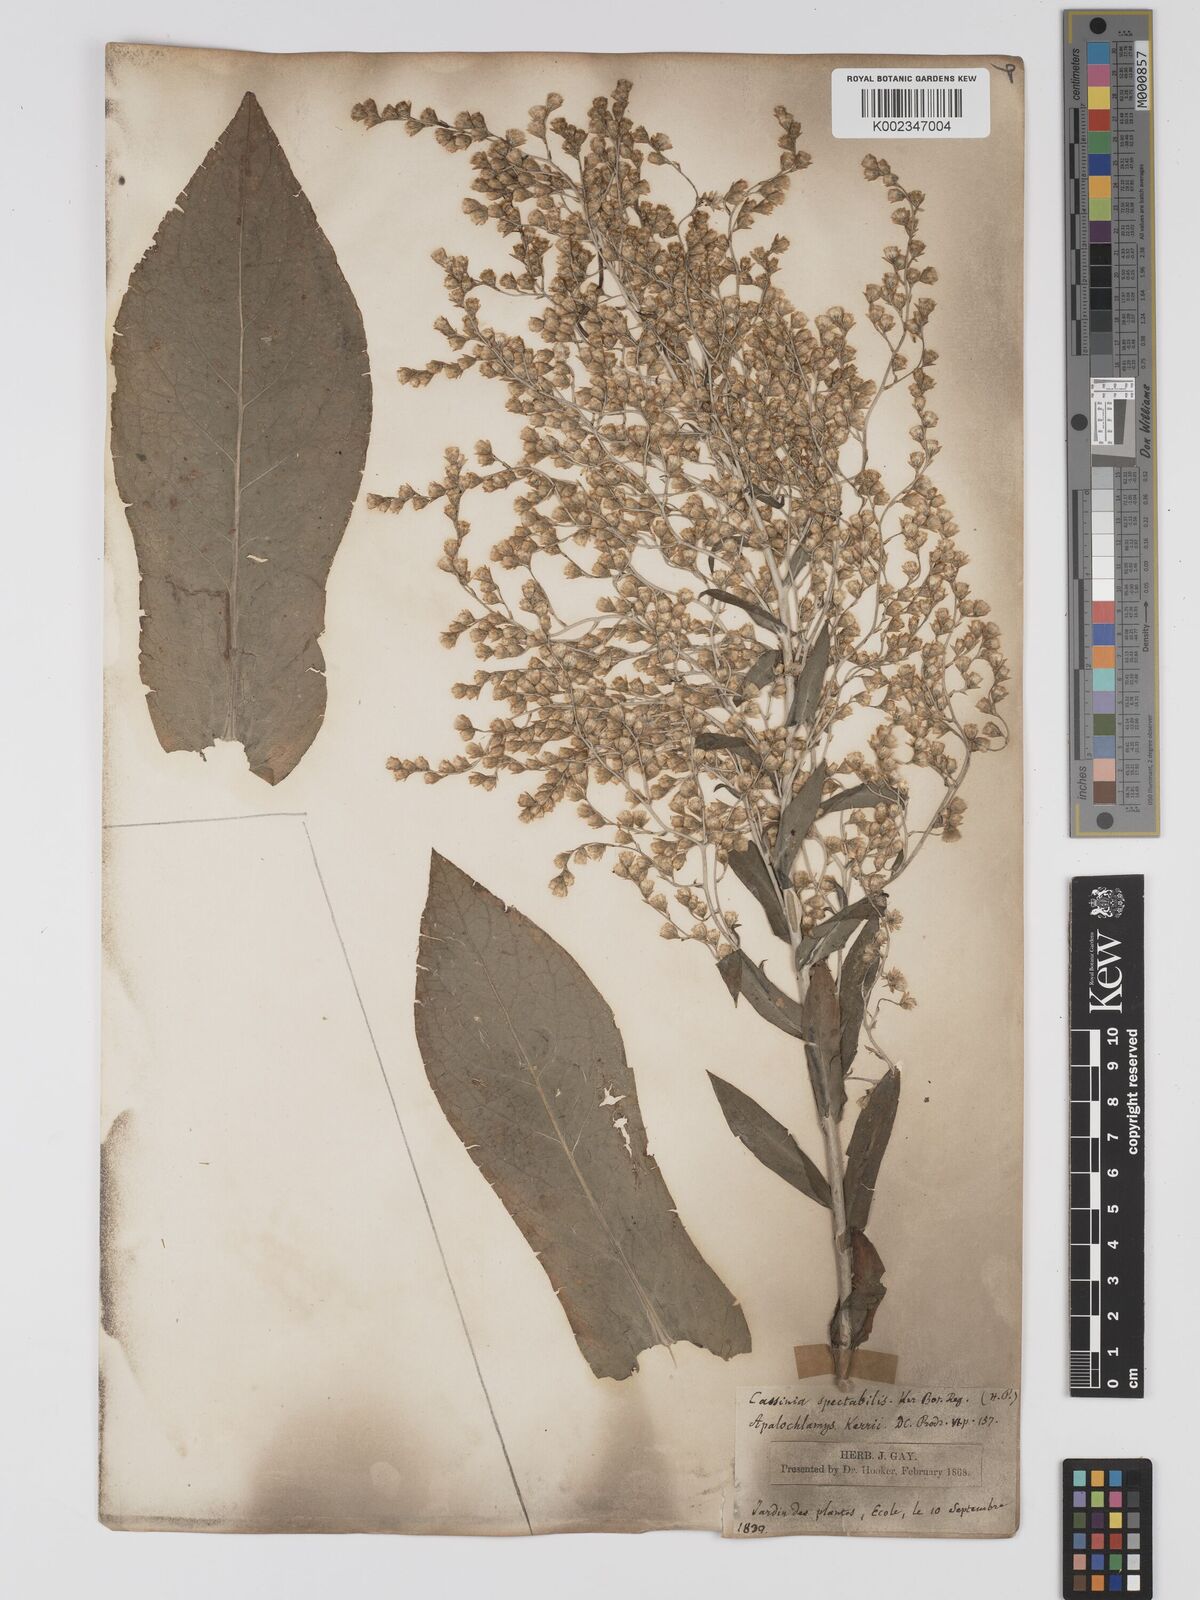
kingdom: Plantae
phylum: Tracheophyta
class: Magnoliopsida
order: Asterales
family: Asteraceae
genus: Apalochlamys
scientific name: Apalochlamys spectabilis
